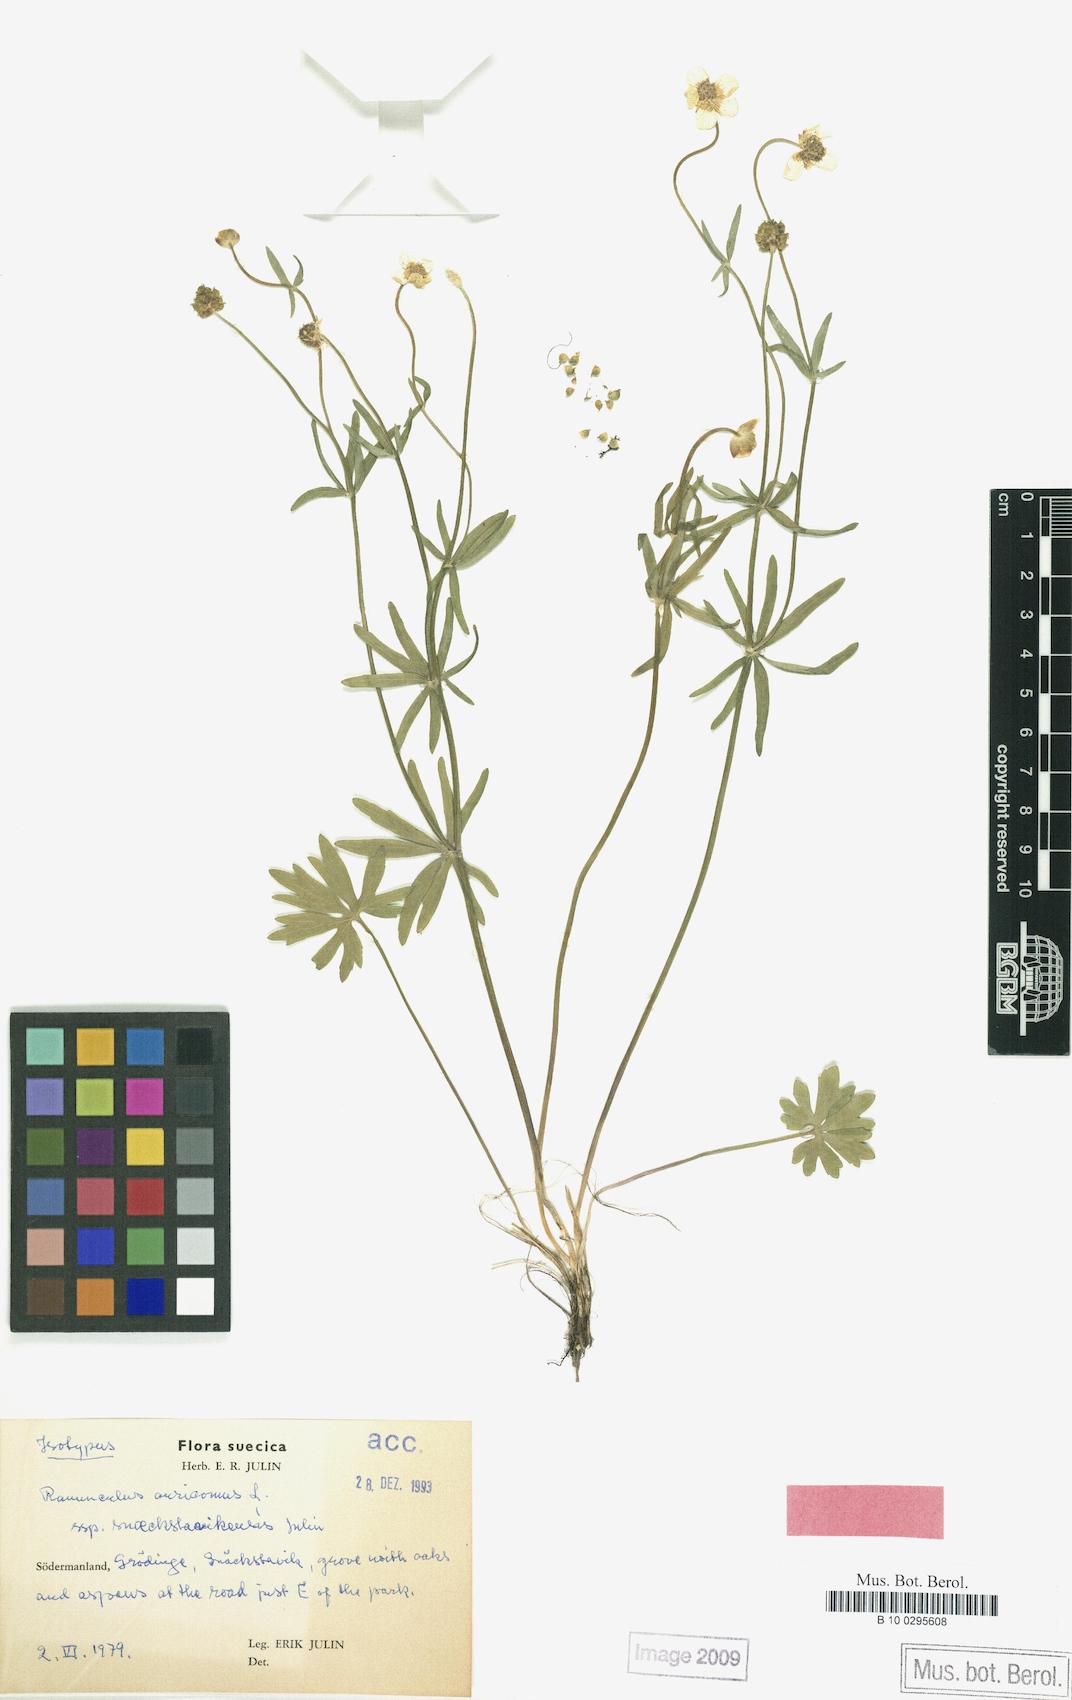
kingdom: Plantae
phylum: Tracheophyta
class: Magnoliopsida
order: Ranunculales
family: Ranunculaceae
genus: Ranunculus
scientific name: Ranunculus snaeckstavikensis
